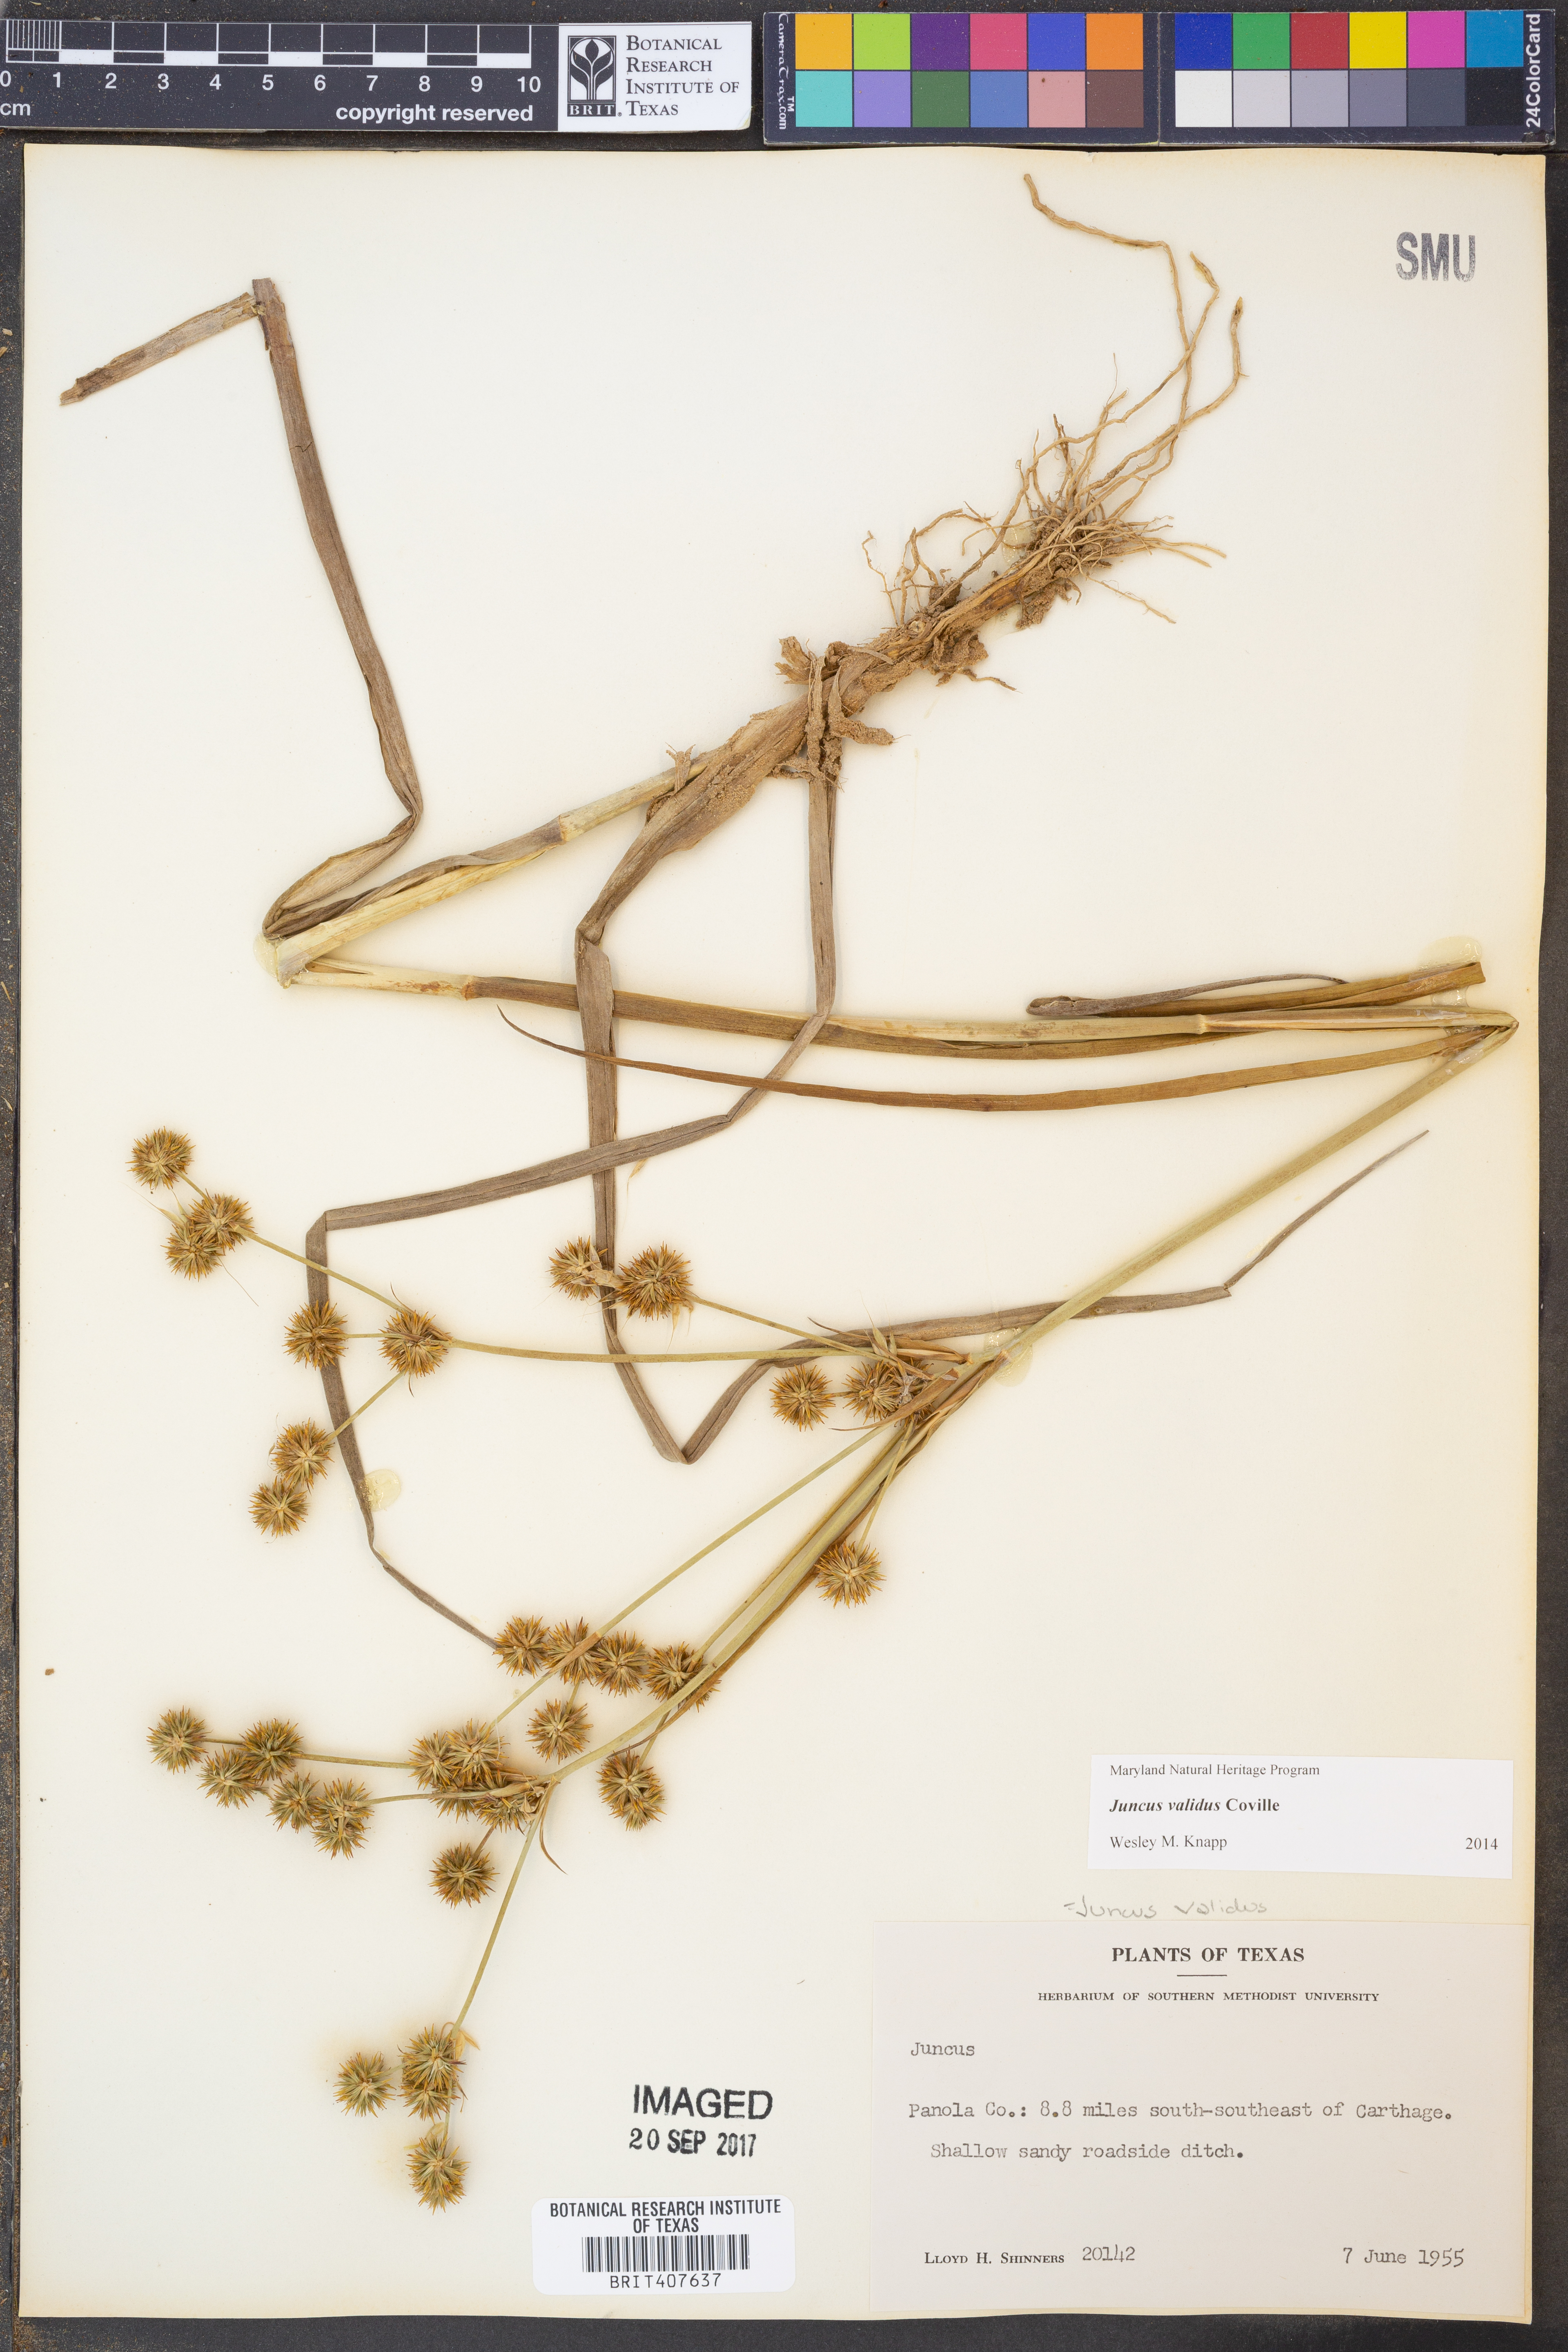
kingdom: Plantae
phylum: Tracheophyta
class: Liliopsida
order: Poales
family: Juncaceae
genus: Juncus
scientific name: Juncus validus
